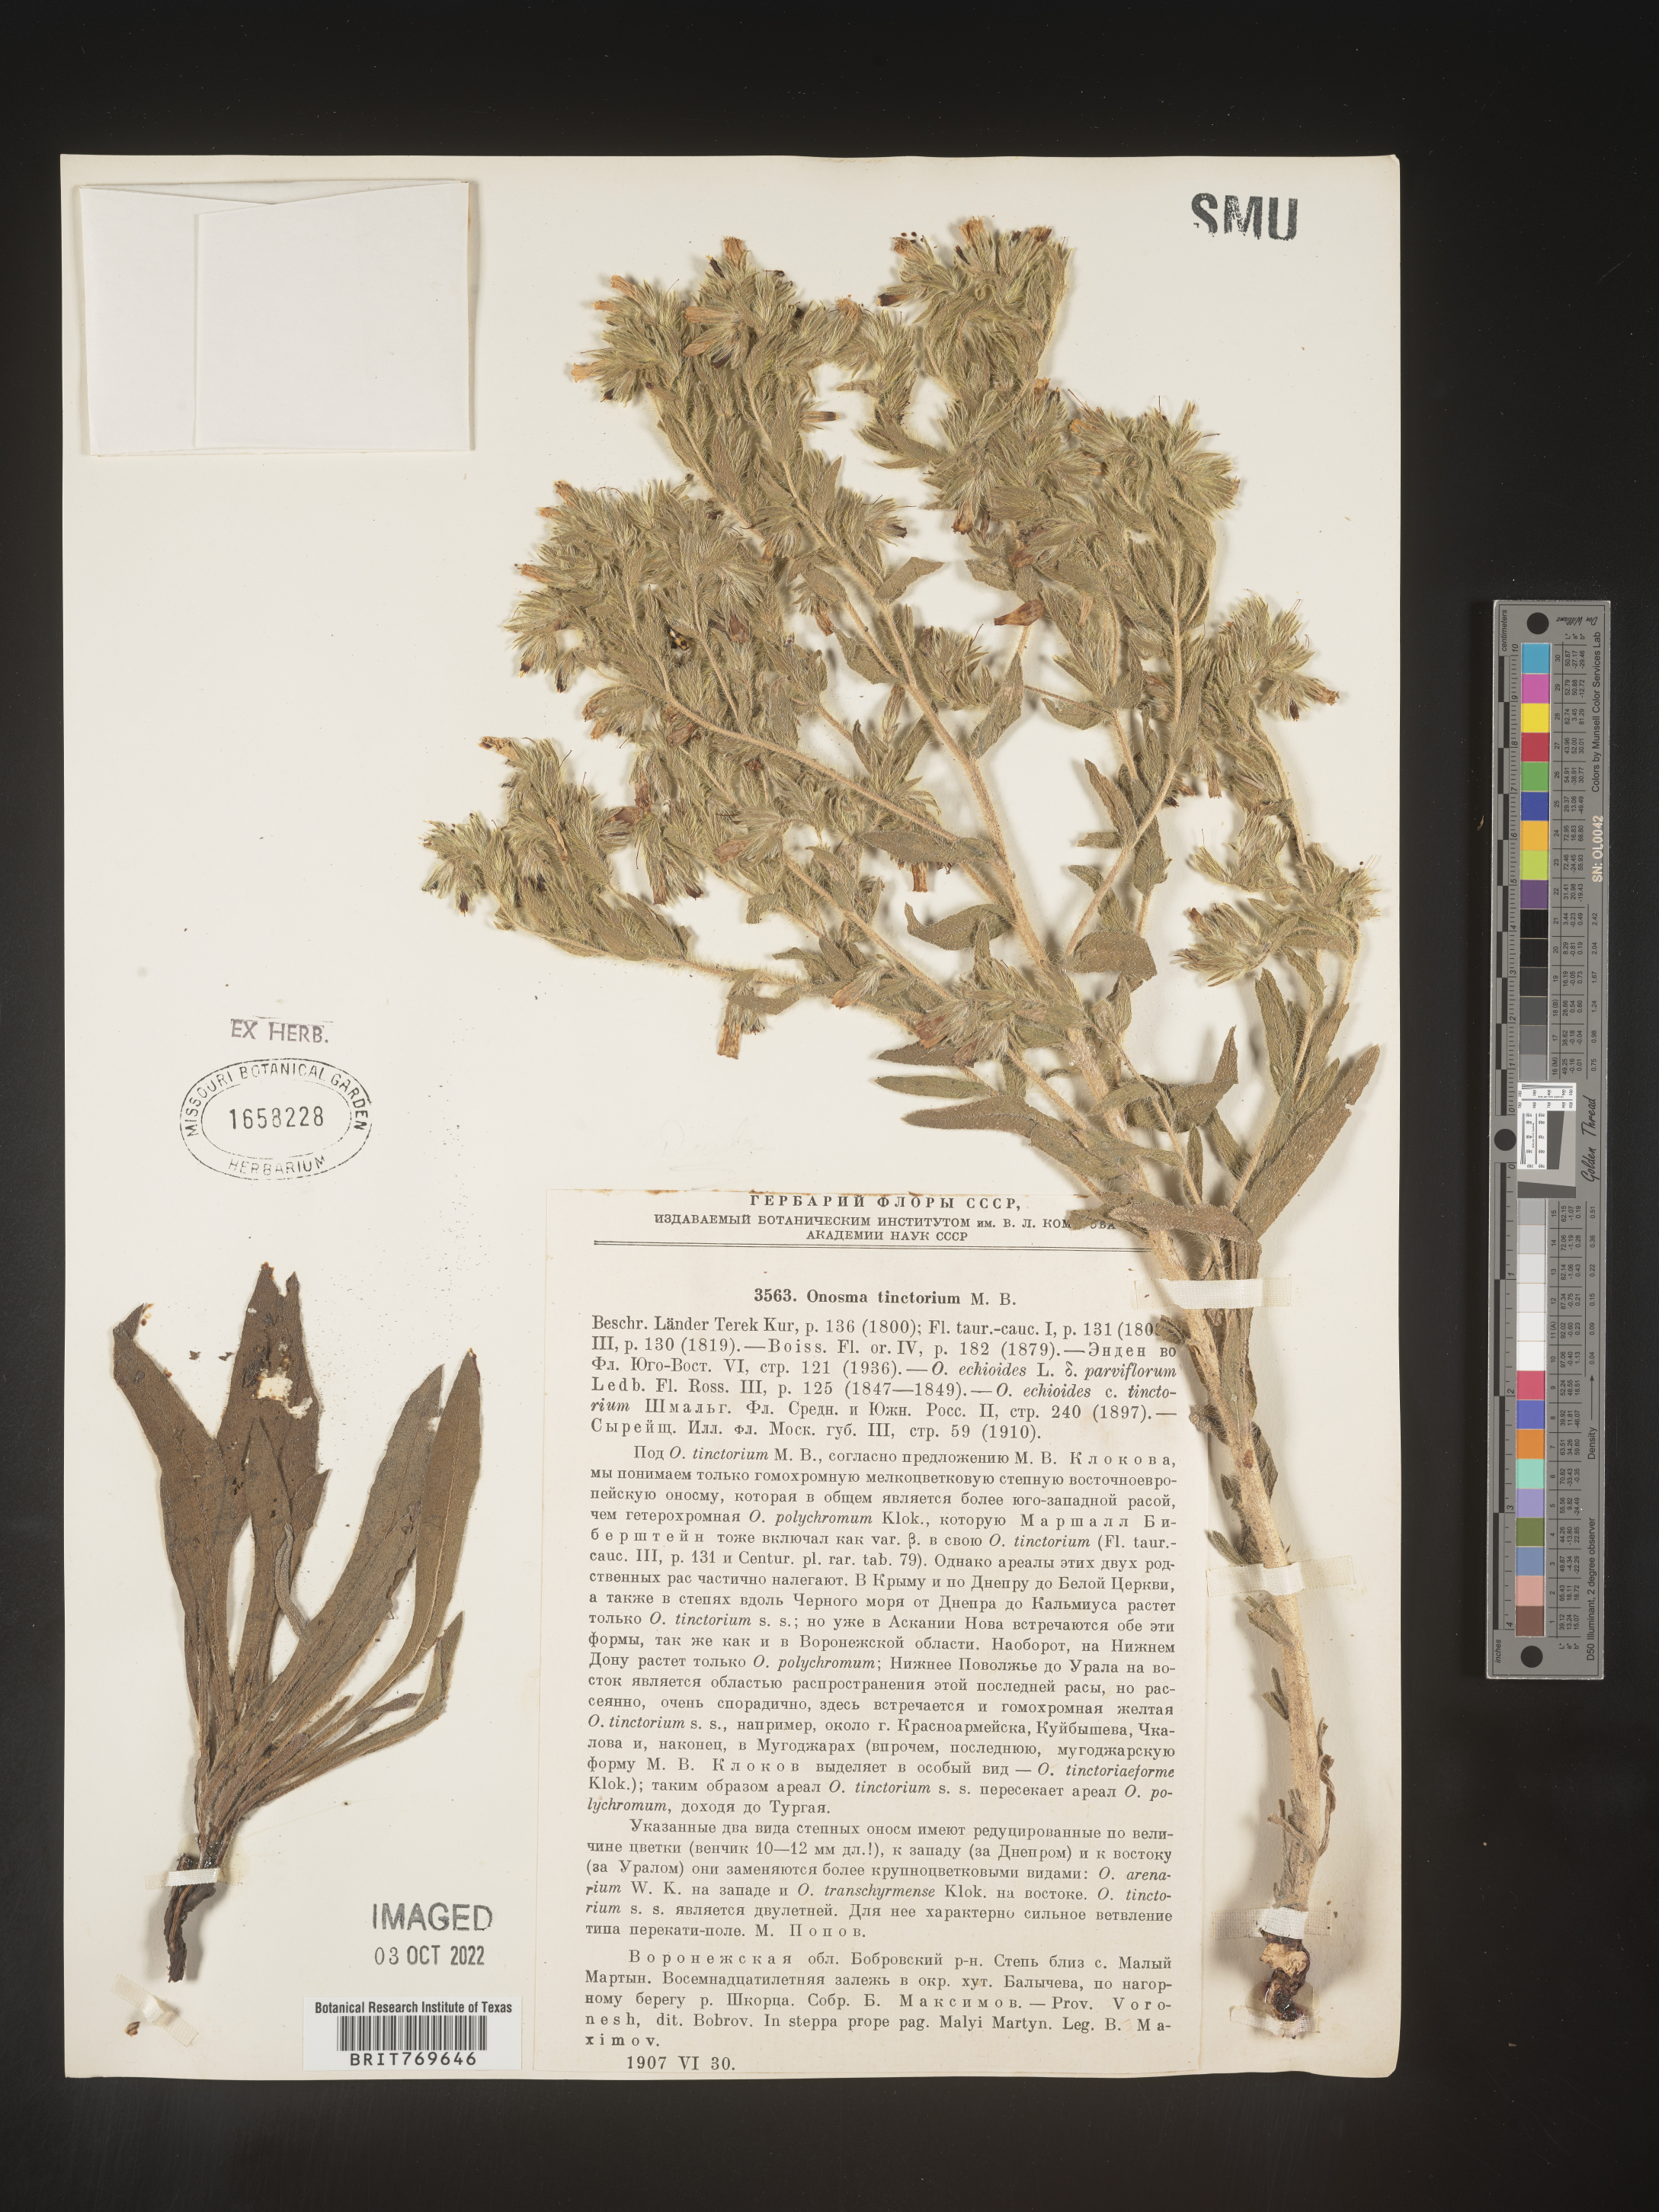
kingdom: Plantae
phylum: Tracheophyta
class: Magnoliopsida
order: Boraginales
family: Boraginaceae
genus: Onosma
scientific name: Onosma
